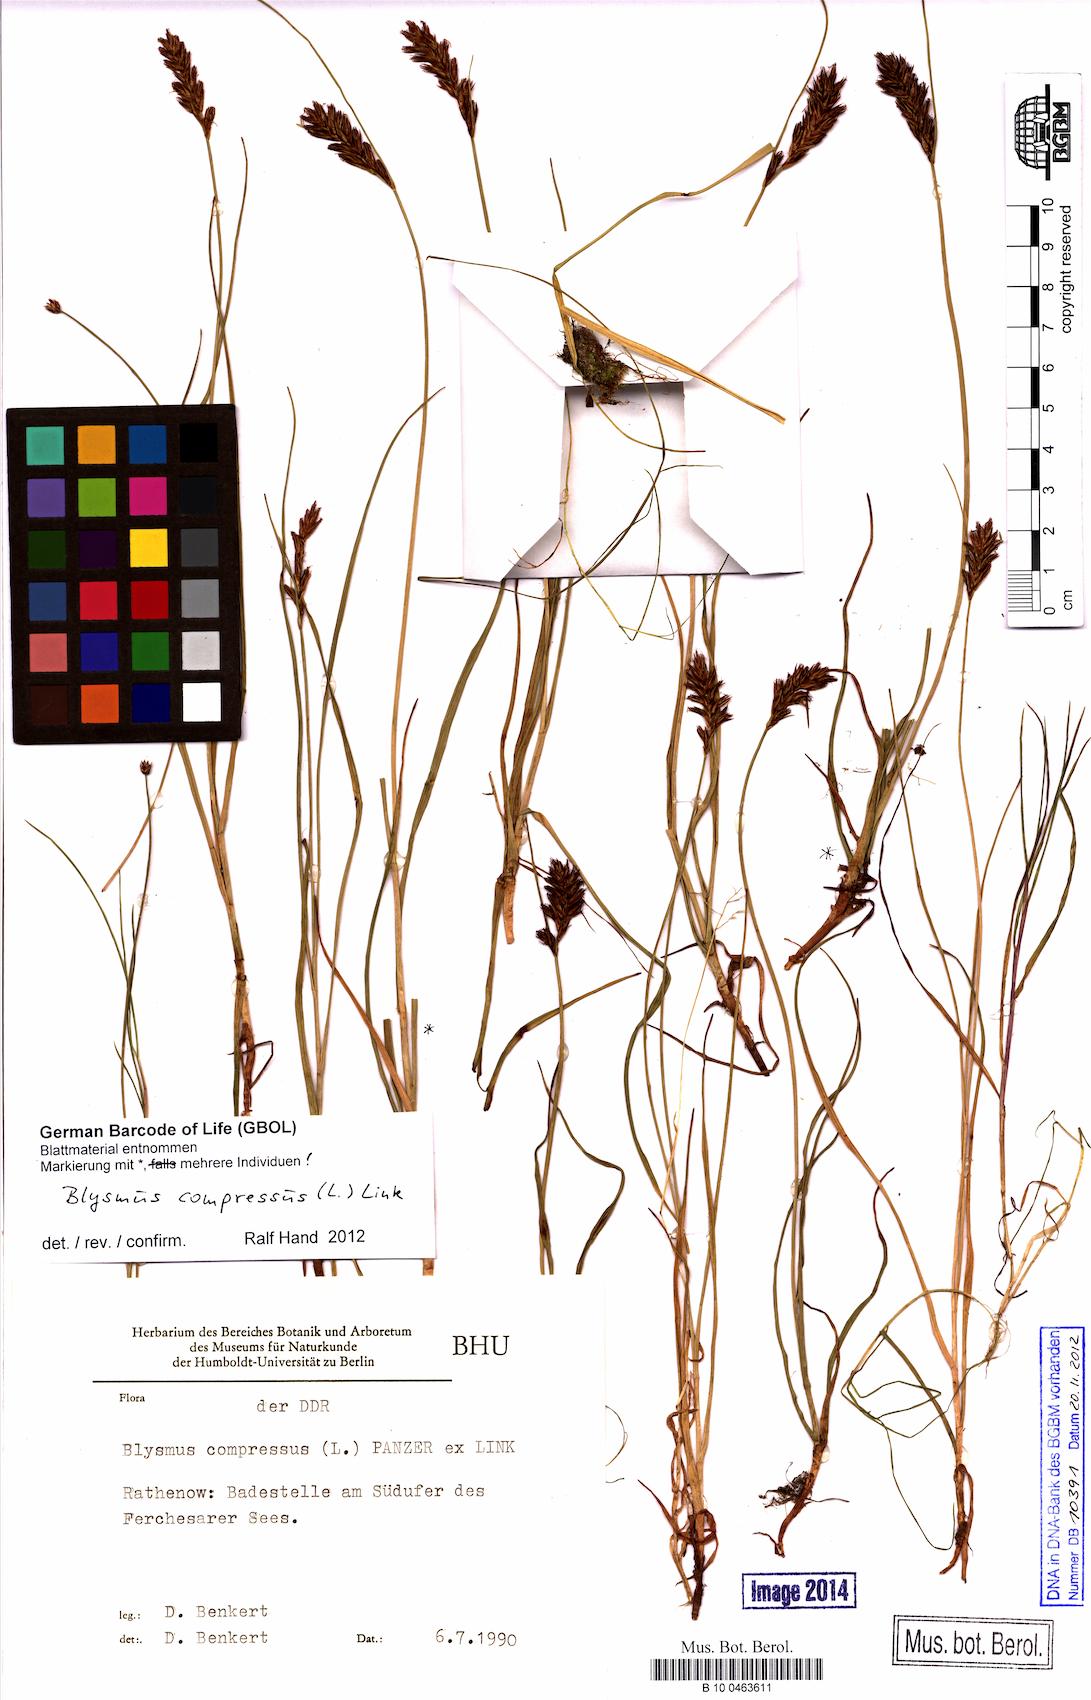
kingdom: Plantae
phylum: Tracheophyta
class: Liliopsida
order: Poales
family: Cyperaceae
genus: Blysmus
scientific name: Blysmus compressus
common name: Flat-sedge
